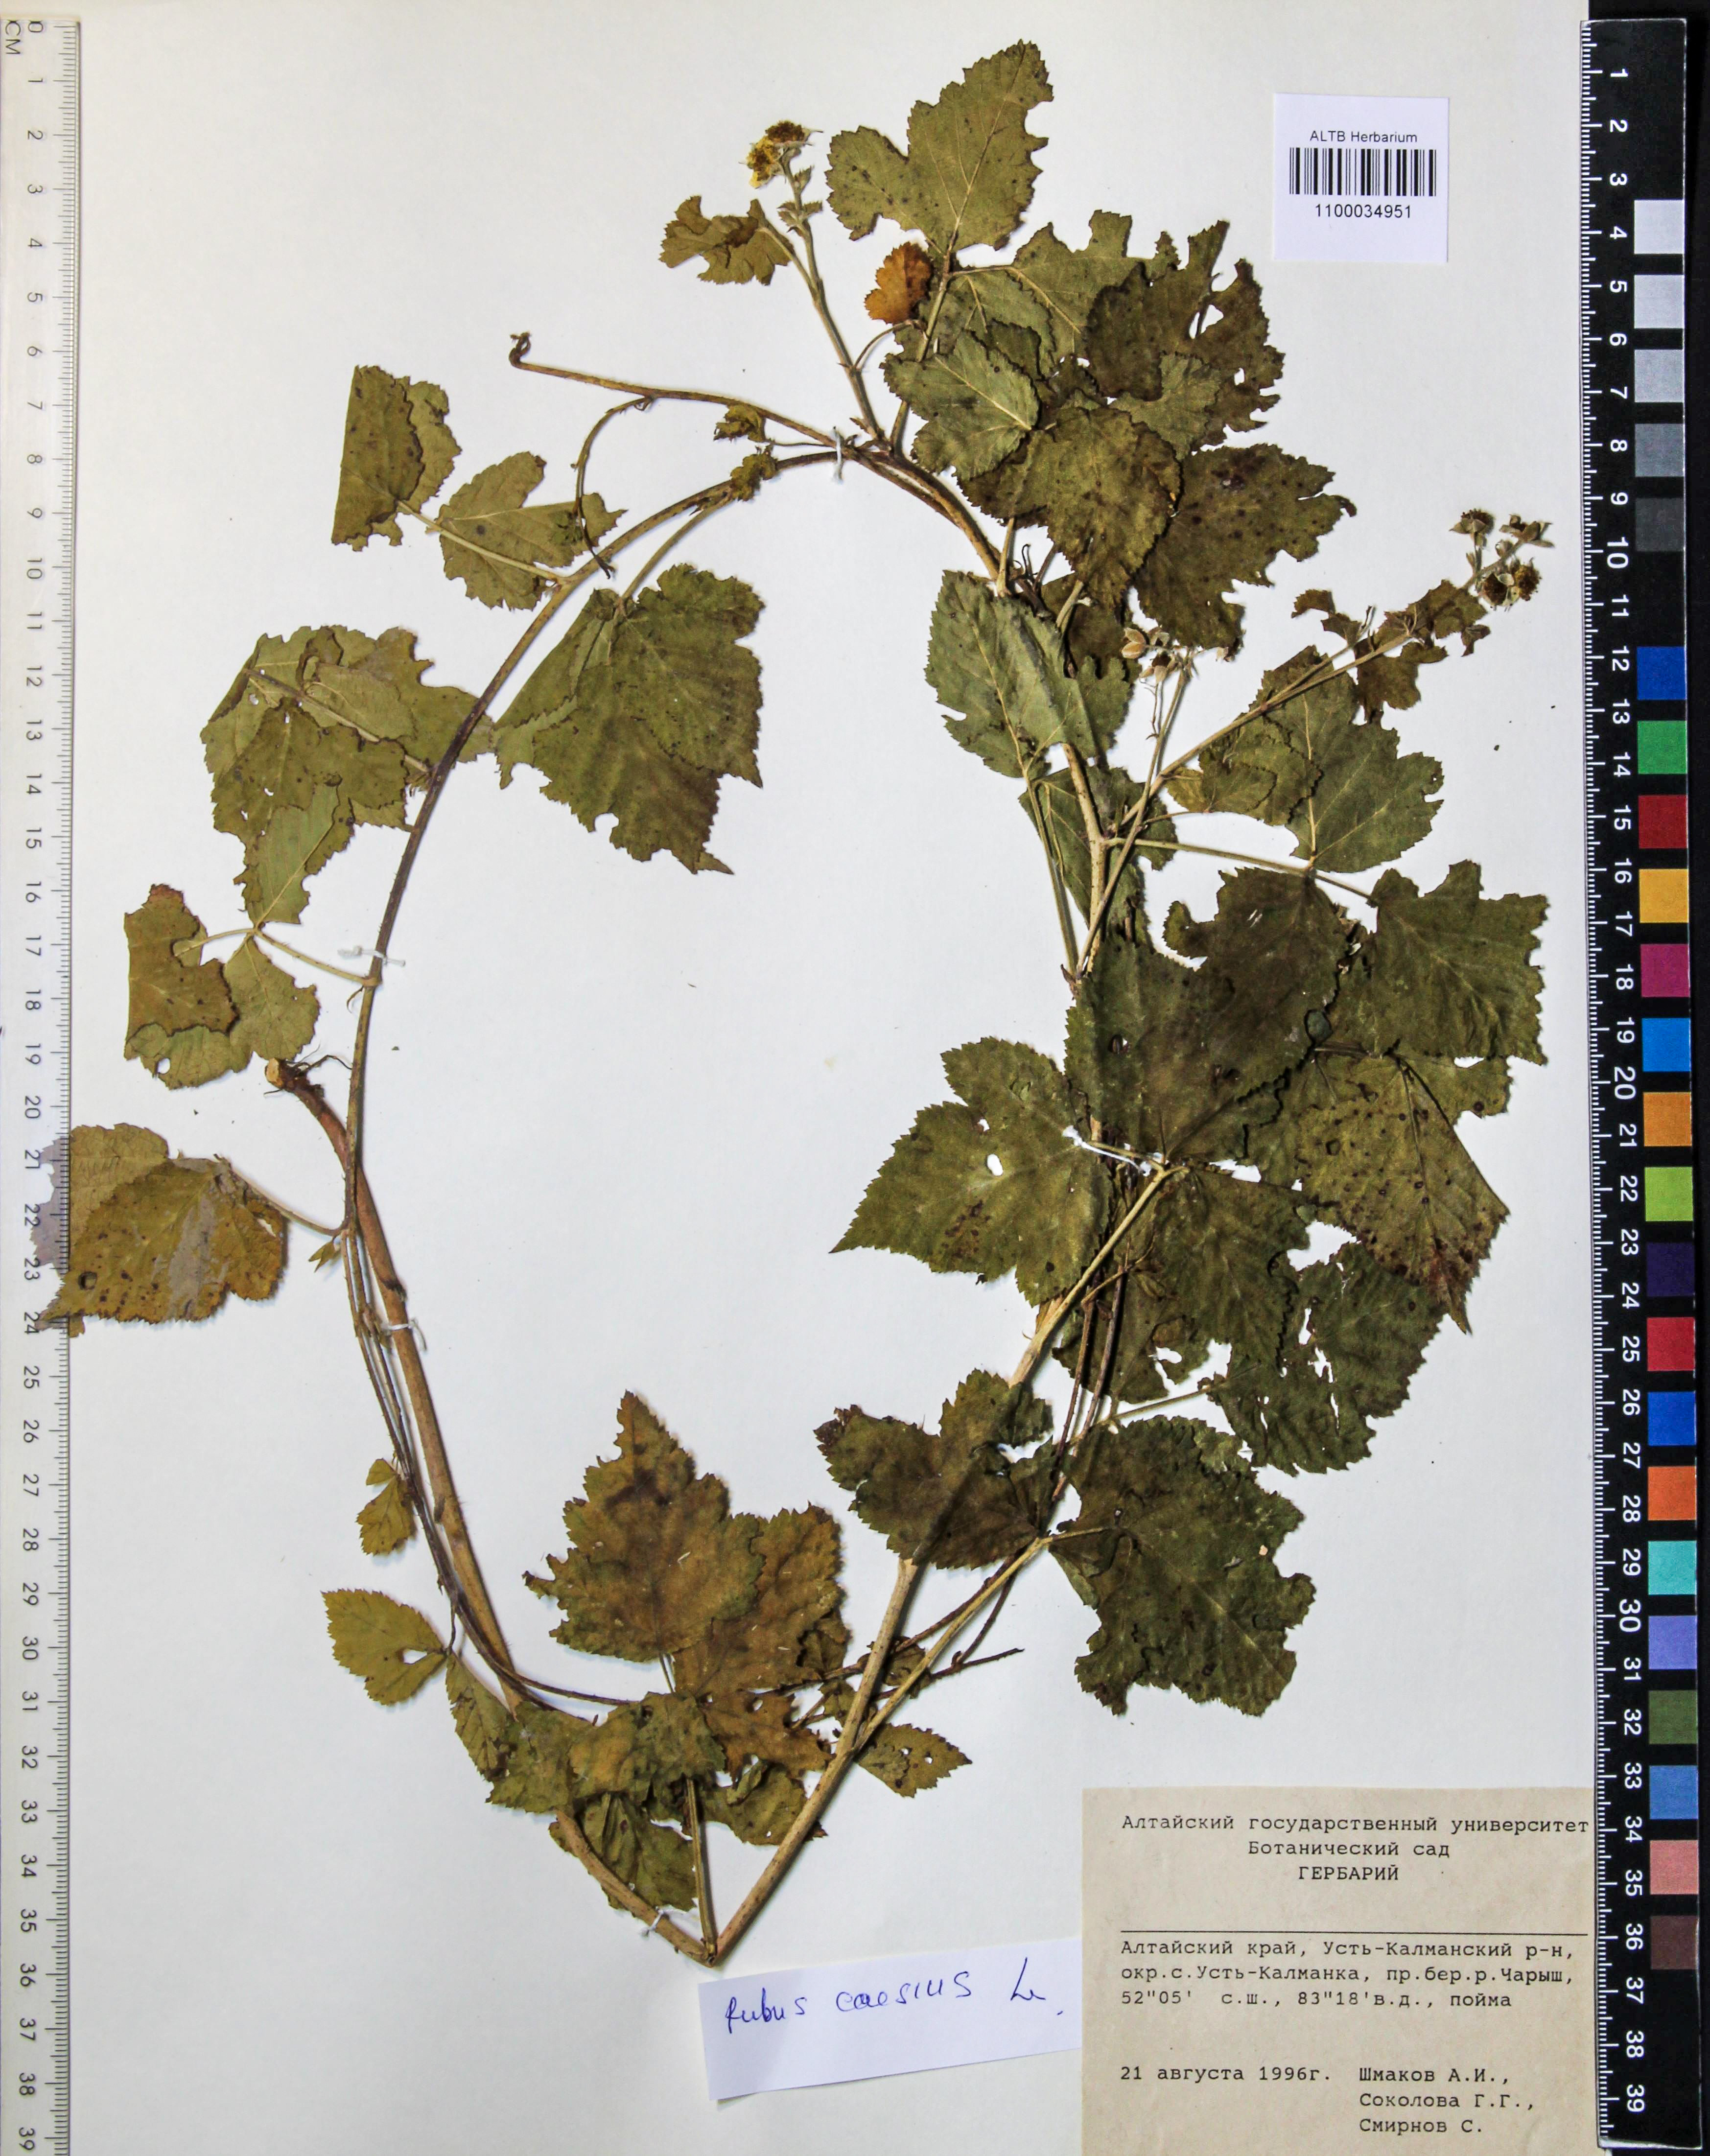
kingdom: Plantae
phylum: Tracheophyta
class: Magnoliopsida
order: Rosales
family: Rosaceae
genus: Rubus
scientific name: Rubus caesius
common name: Dewberry
